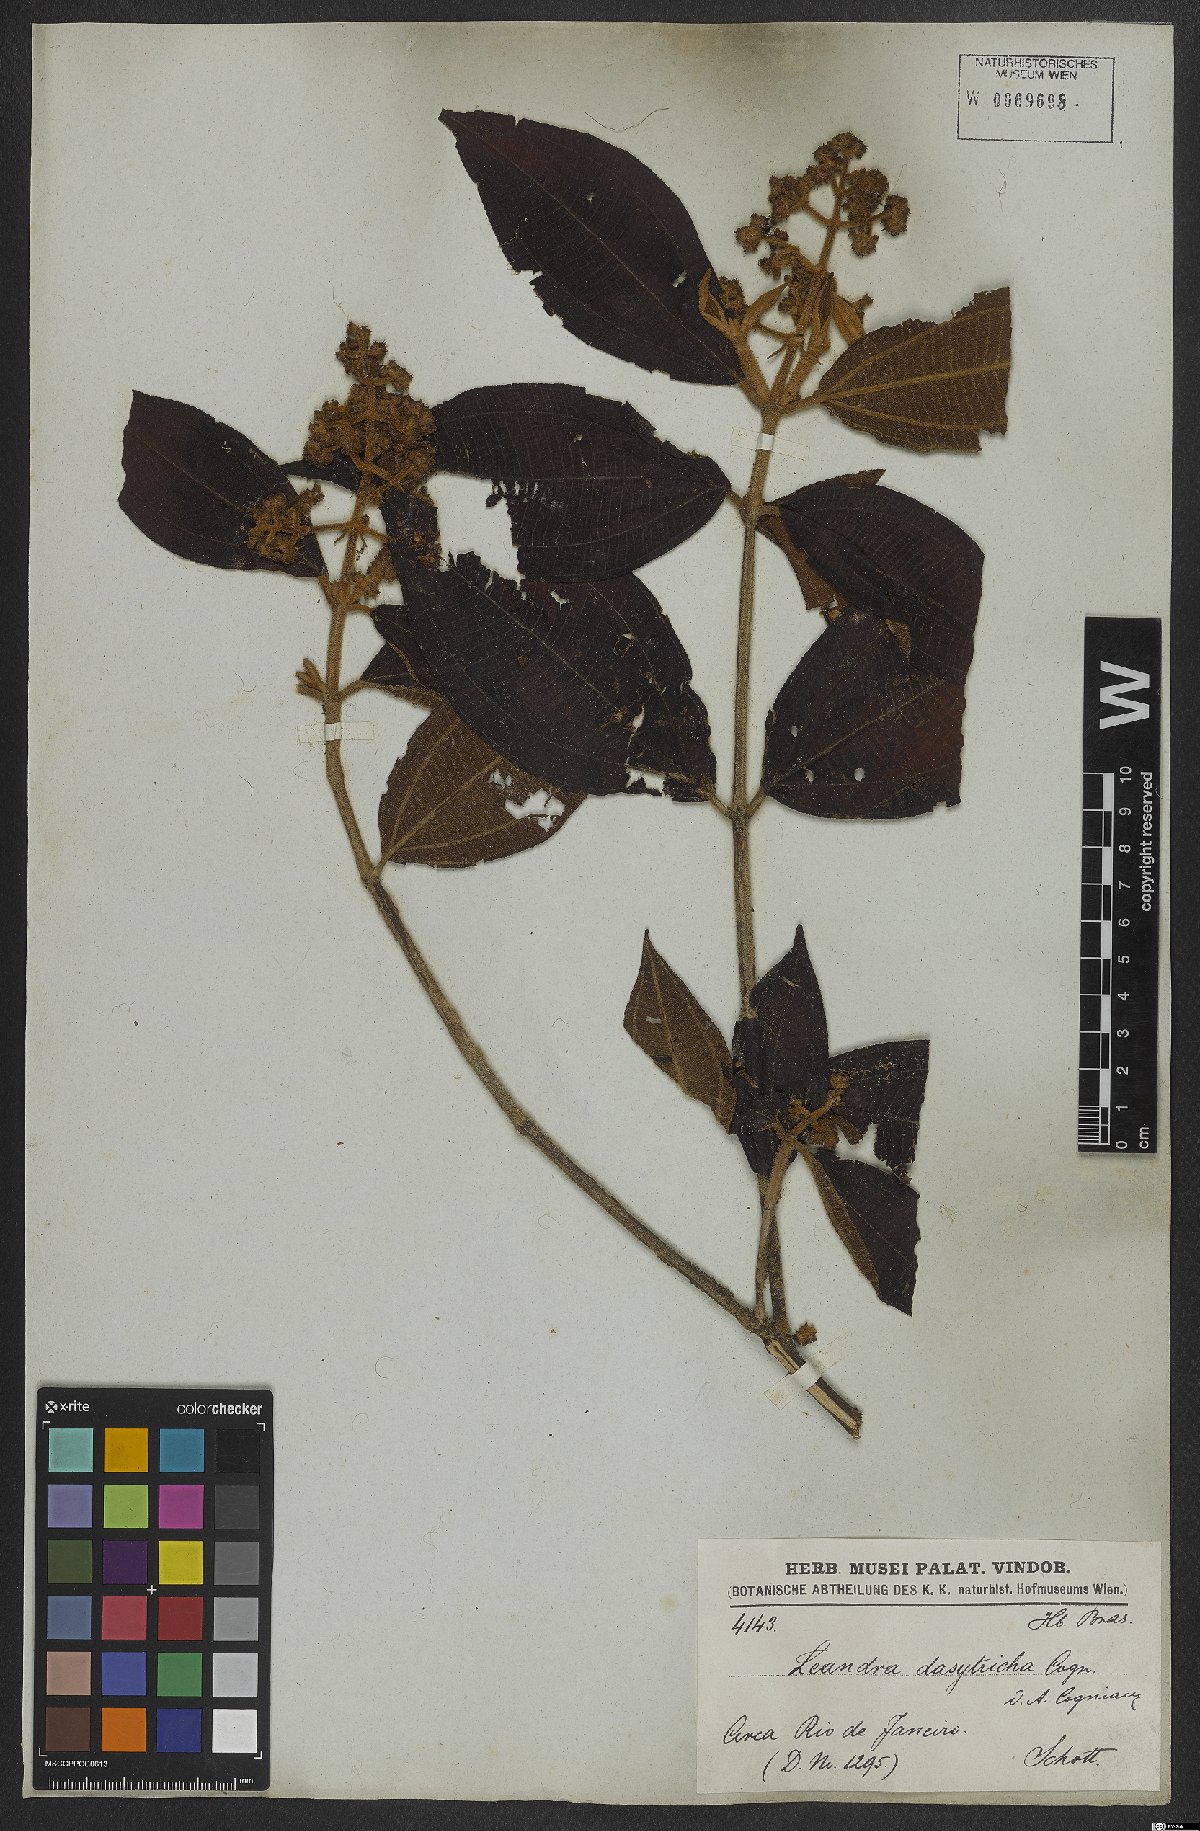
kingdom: Plantae
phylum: Tracheophyta
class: Magnoliopsida
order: Myrtales
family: Melastomataceae
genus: Miconia
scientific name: Miconia dasytricha
